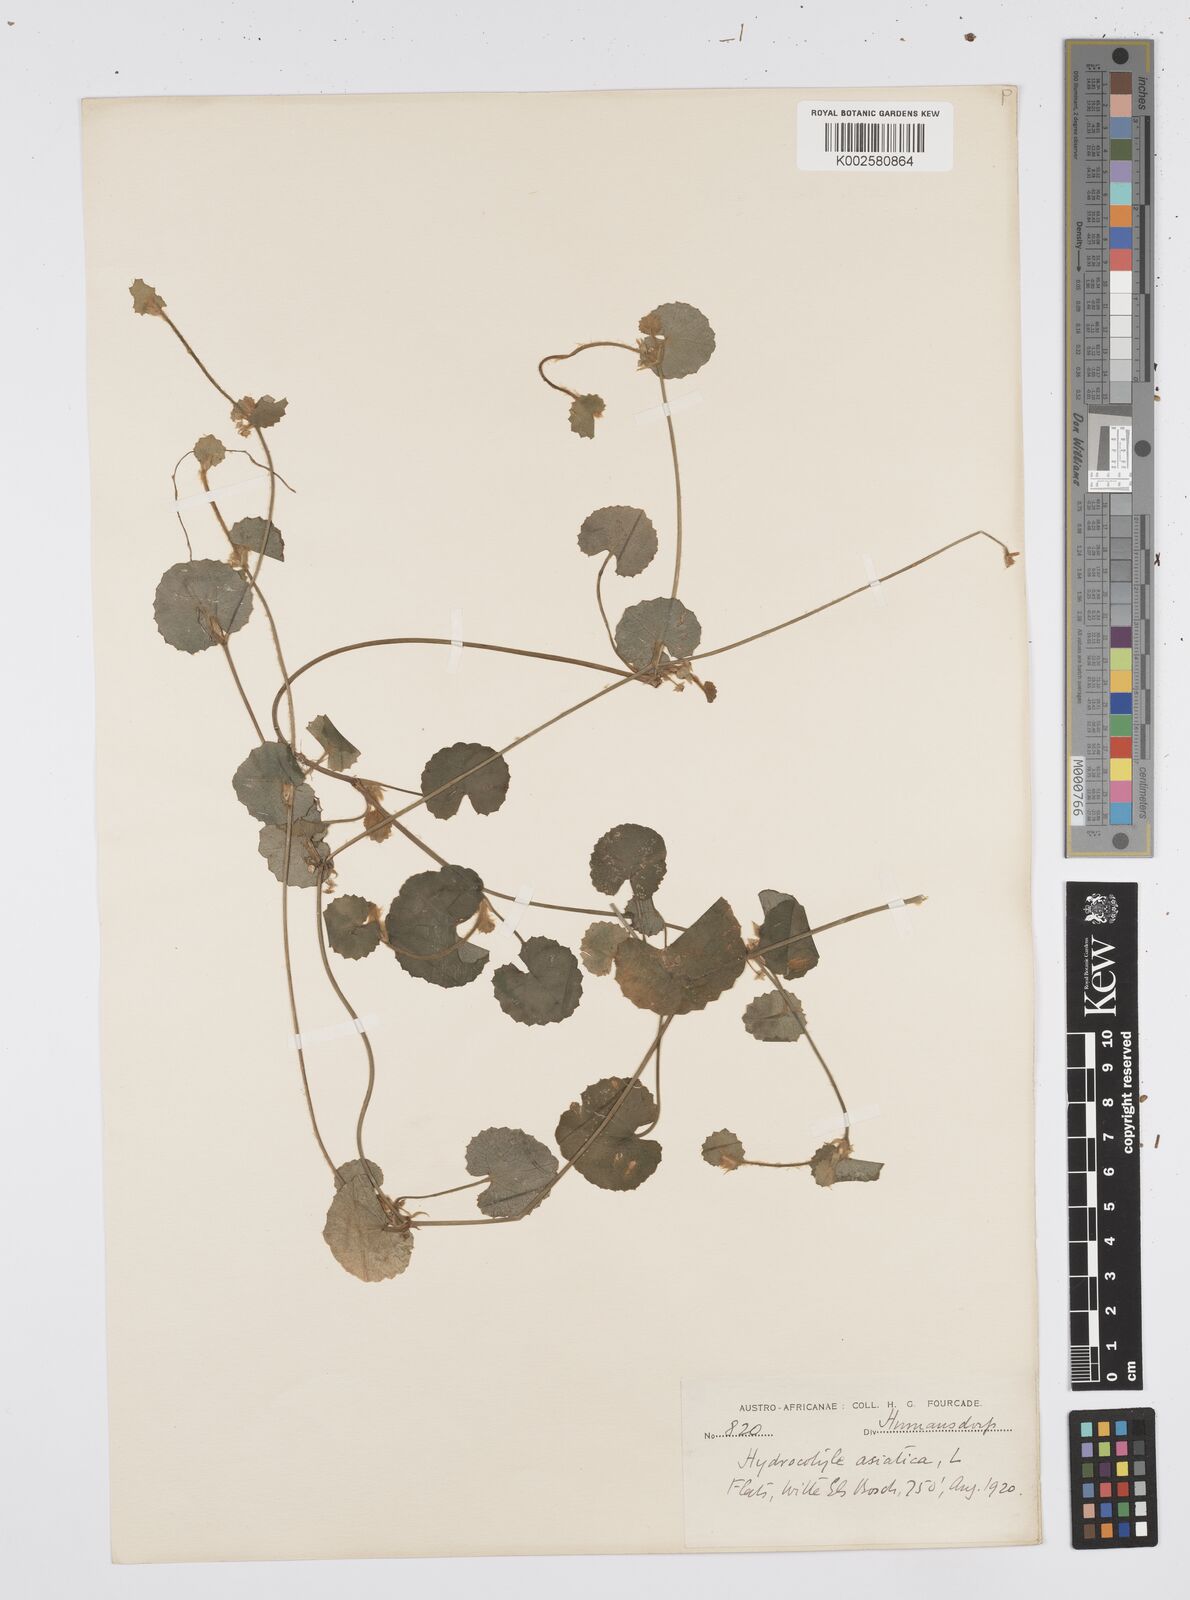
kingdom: Plantae
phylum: Tracheophyta
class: Magnoliopsida
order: Apiales
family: Apiaceae
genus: Centella
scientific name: Centella eriantha
